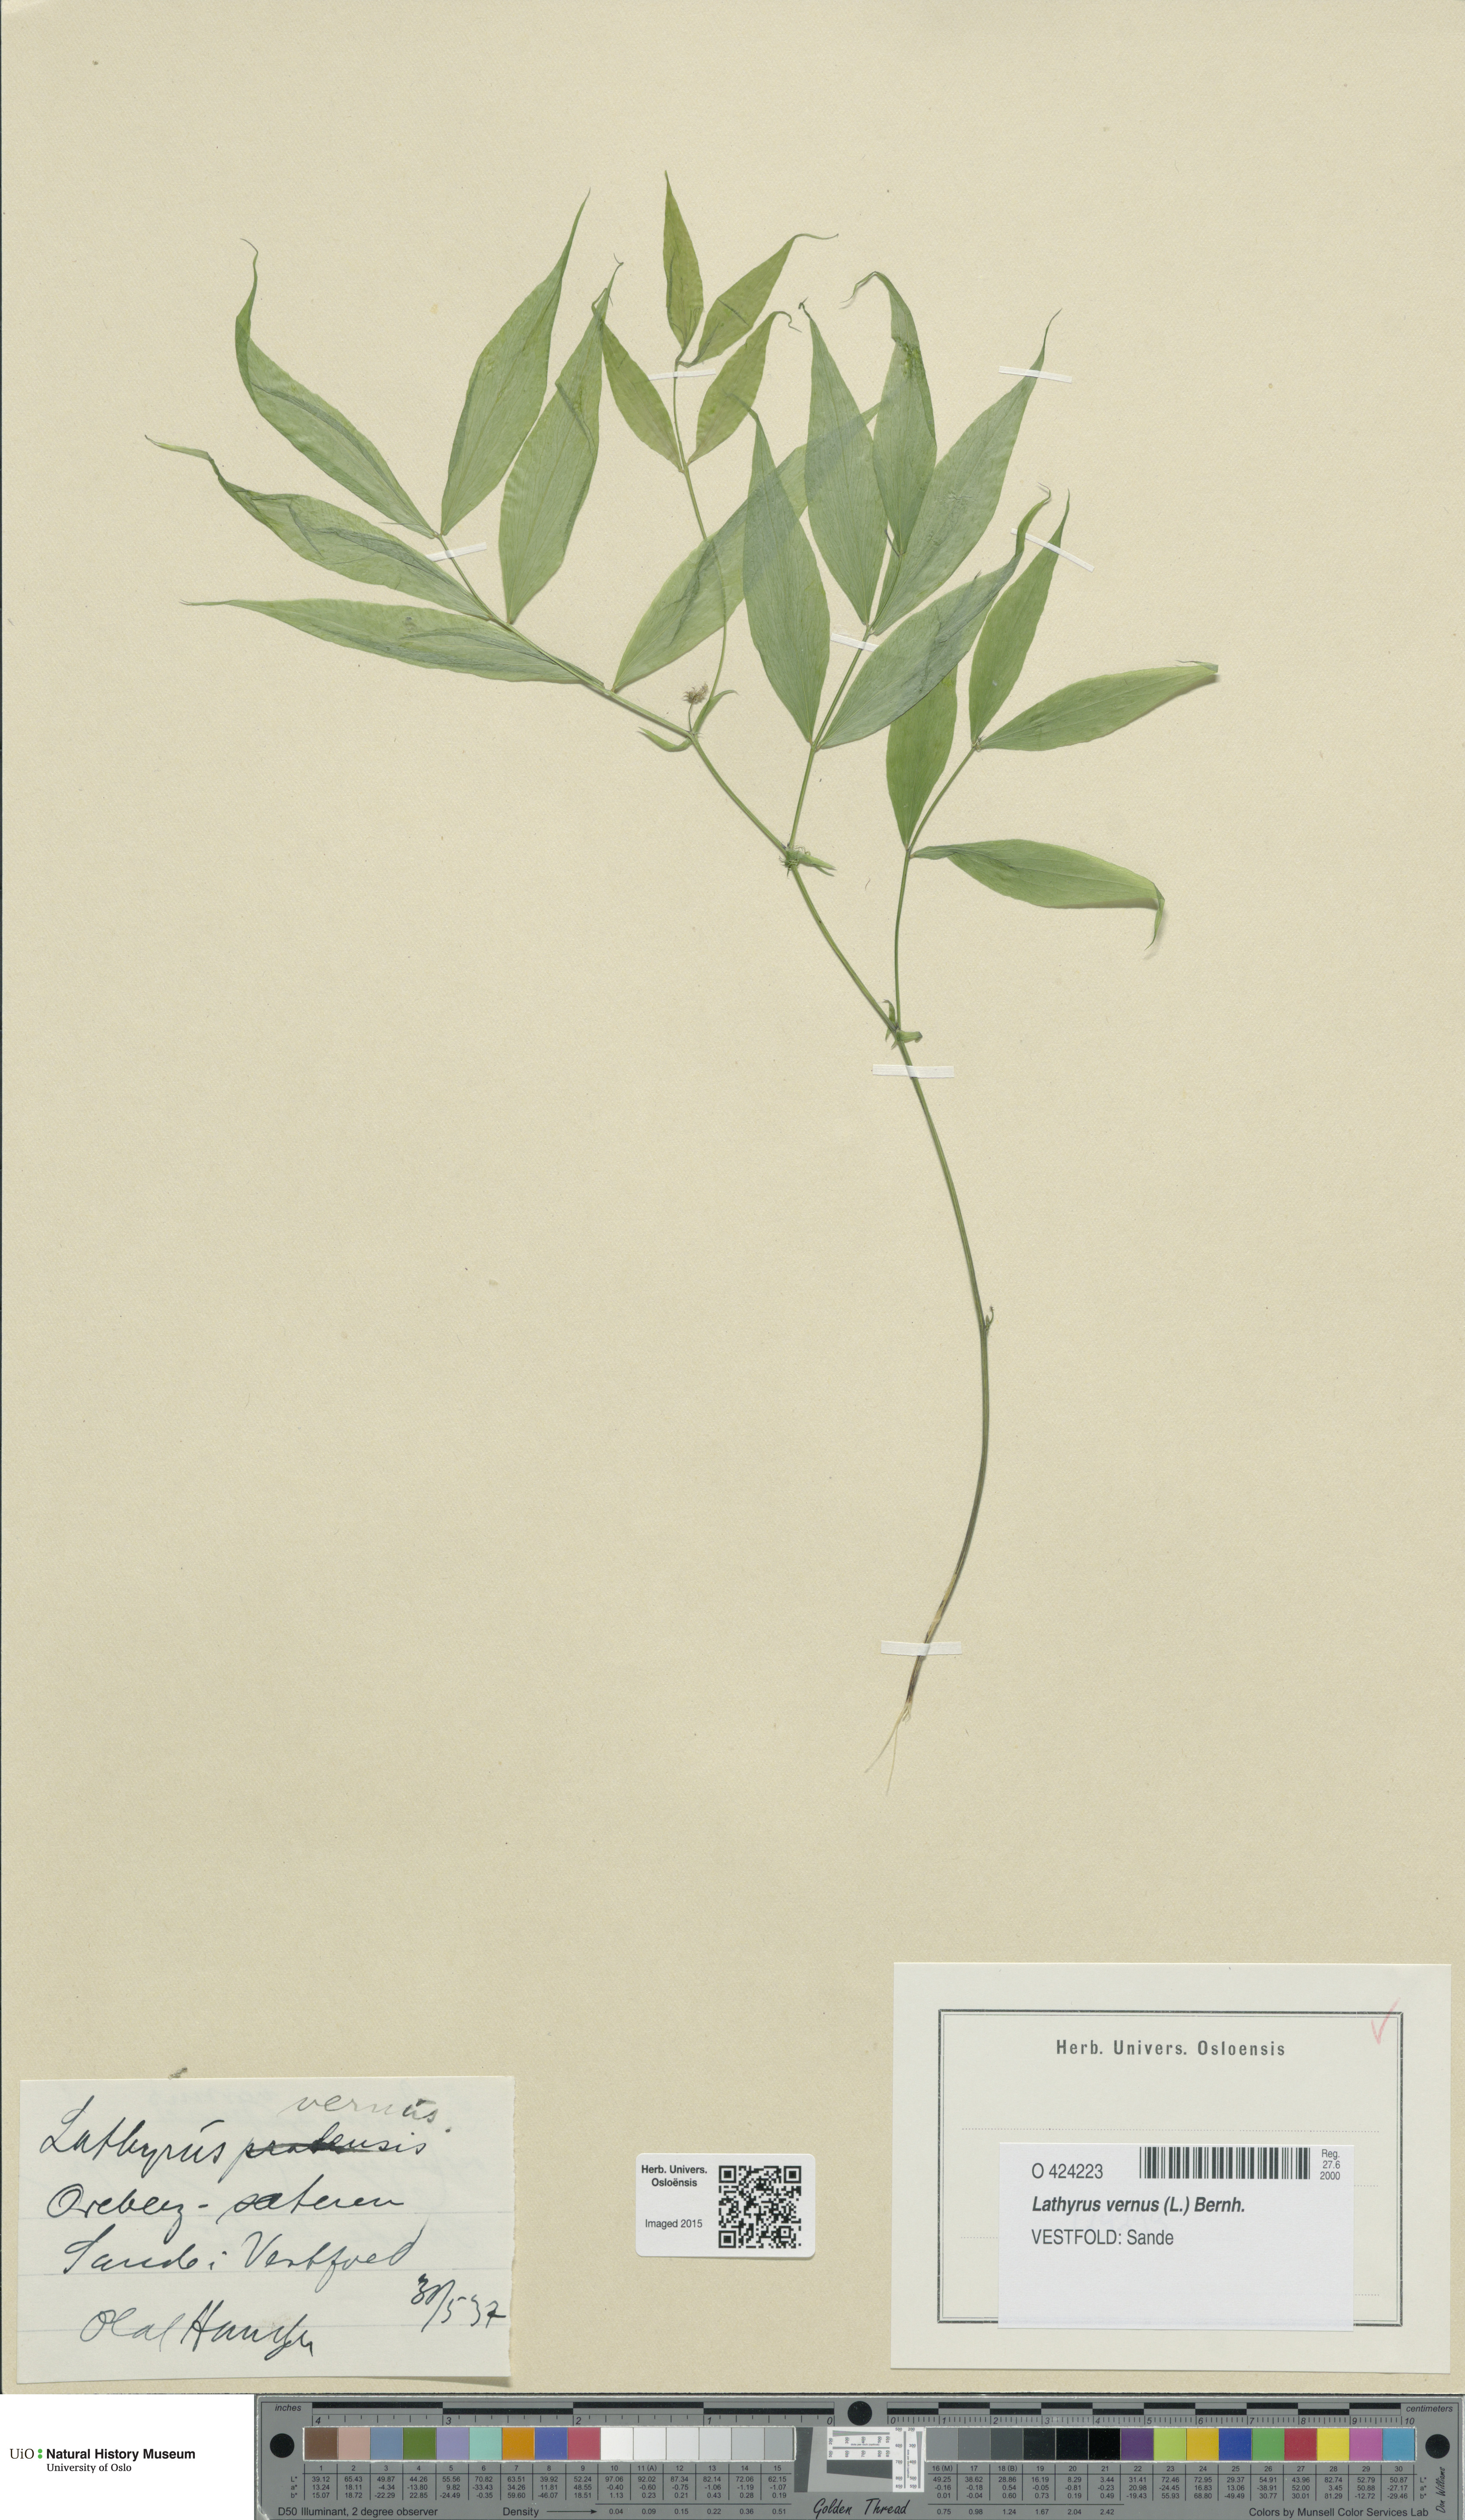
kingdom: Plantae
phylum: Tracheophyta
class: Magnoliopsida
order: Fabales
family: Fabaceae
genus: Lathyrus
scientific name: Lathyrus vernus
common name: Spring pea
